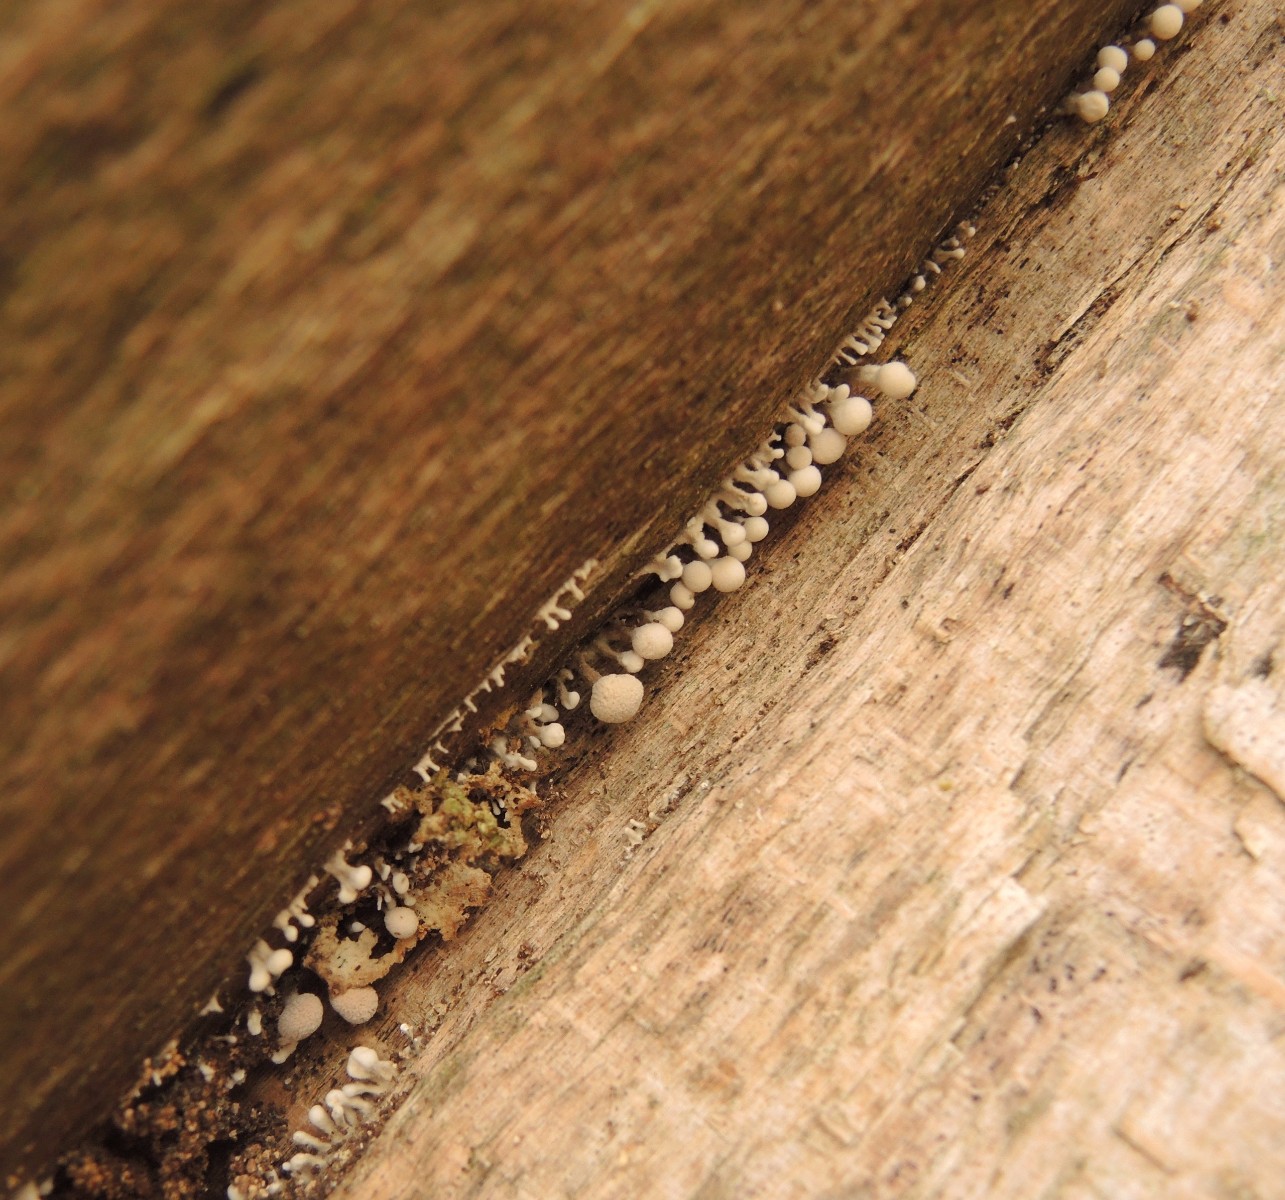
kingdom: Fungi
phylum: Basidiomycota
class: Atractiellomycetes
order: Atractiellales
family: Phleogenaceae
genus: Phleogena
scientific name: Phleogena faginea
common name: pudderkølle
